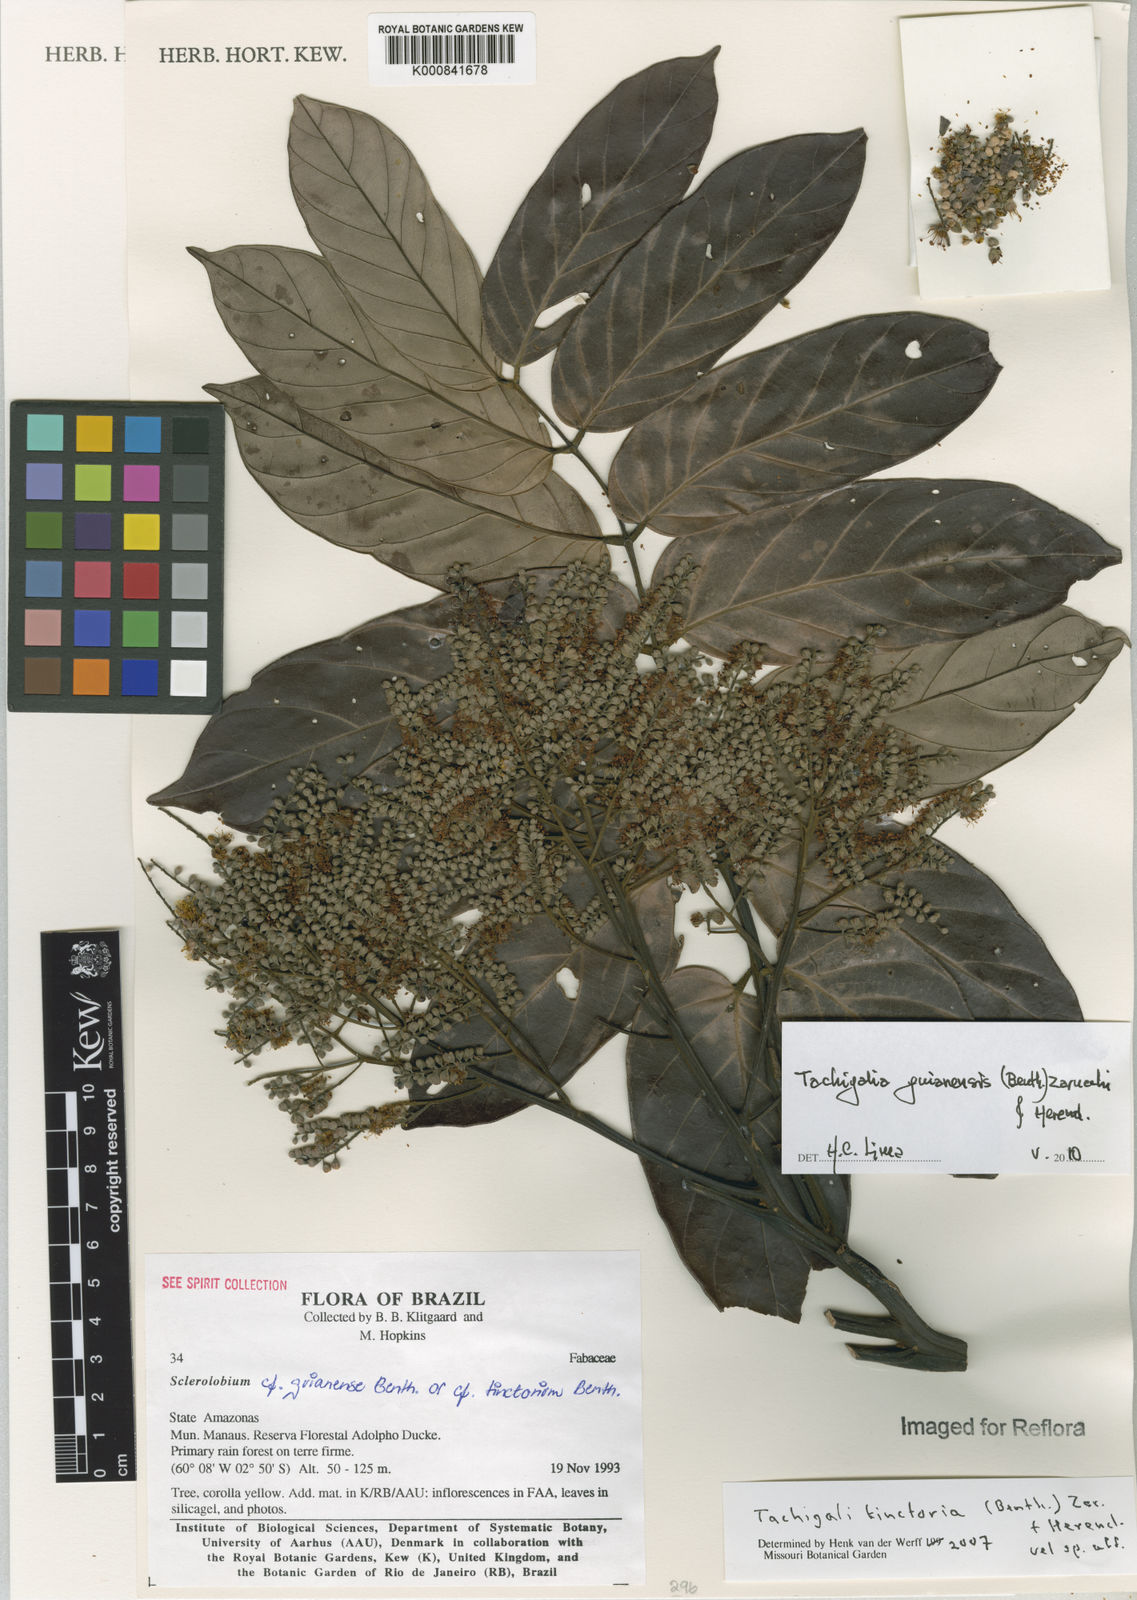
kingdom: Plantae
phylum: Tracheophyta
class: Magnoliopsida
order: Fabales
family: Fabaceae
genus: Tachigali
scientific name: Tachigali guianensis
